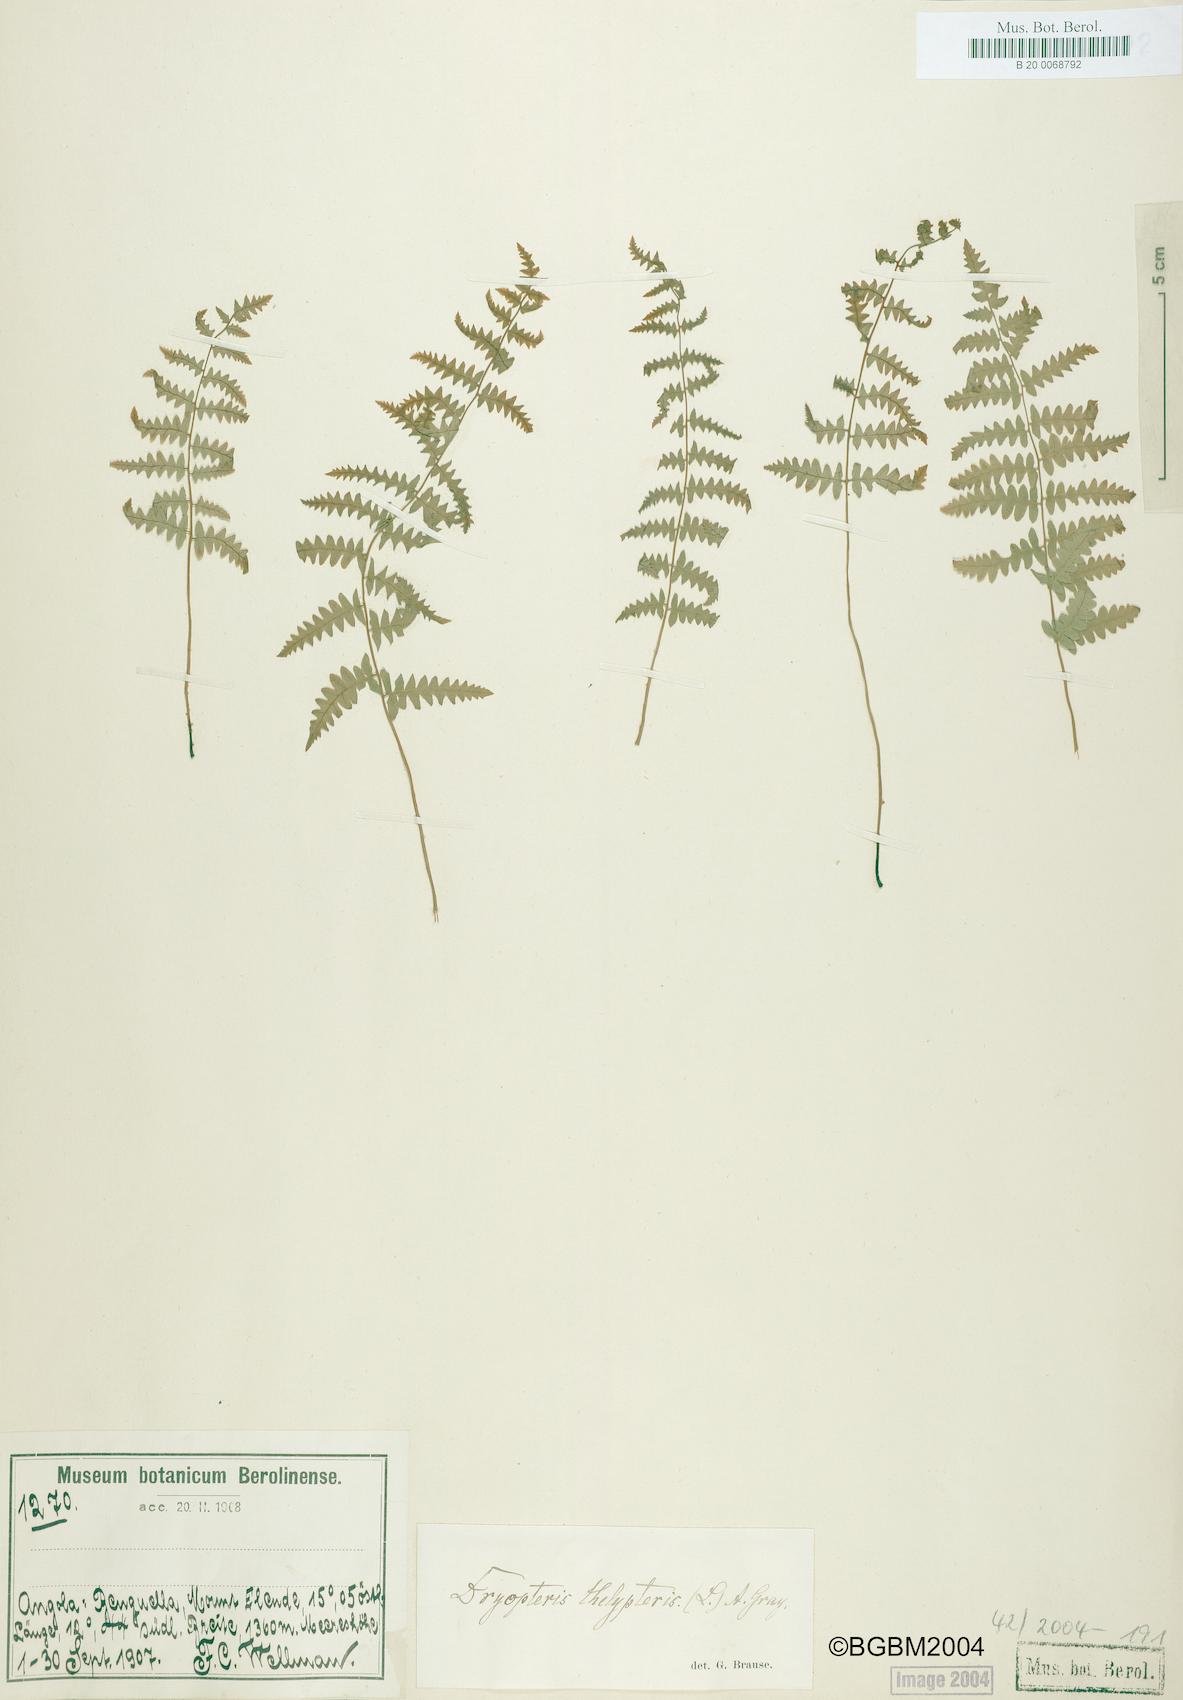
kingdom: Plantae
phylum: Tracheophyta
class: Polypodiopsida
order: Polypodiales
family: Thelypteridaceae
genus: Thelypteris
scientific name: Thelypteris palustris
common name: Marsh fern
